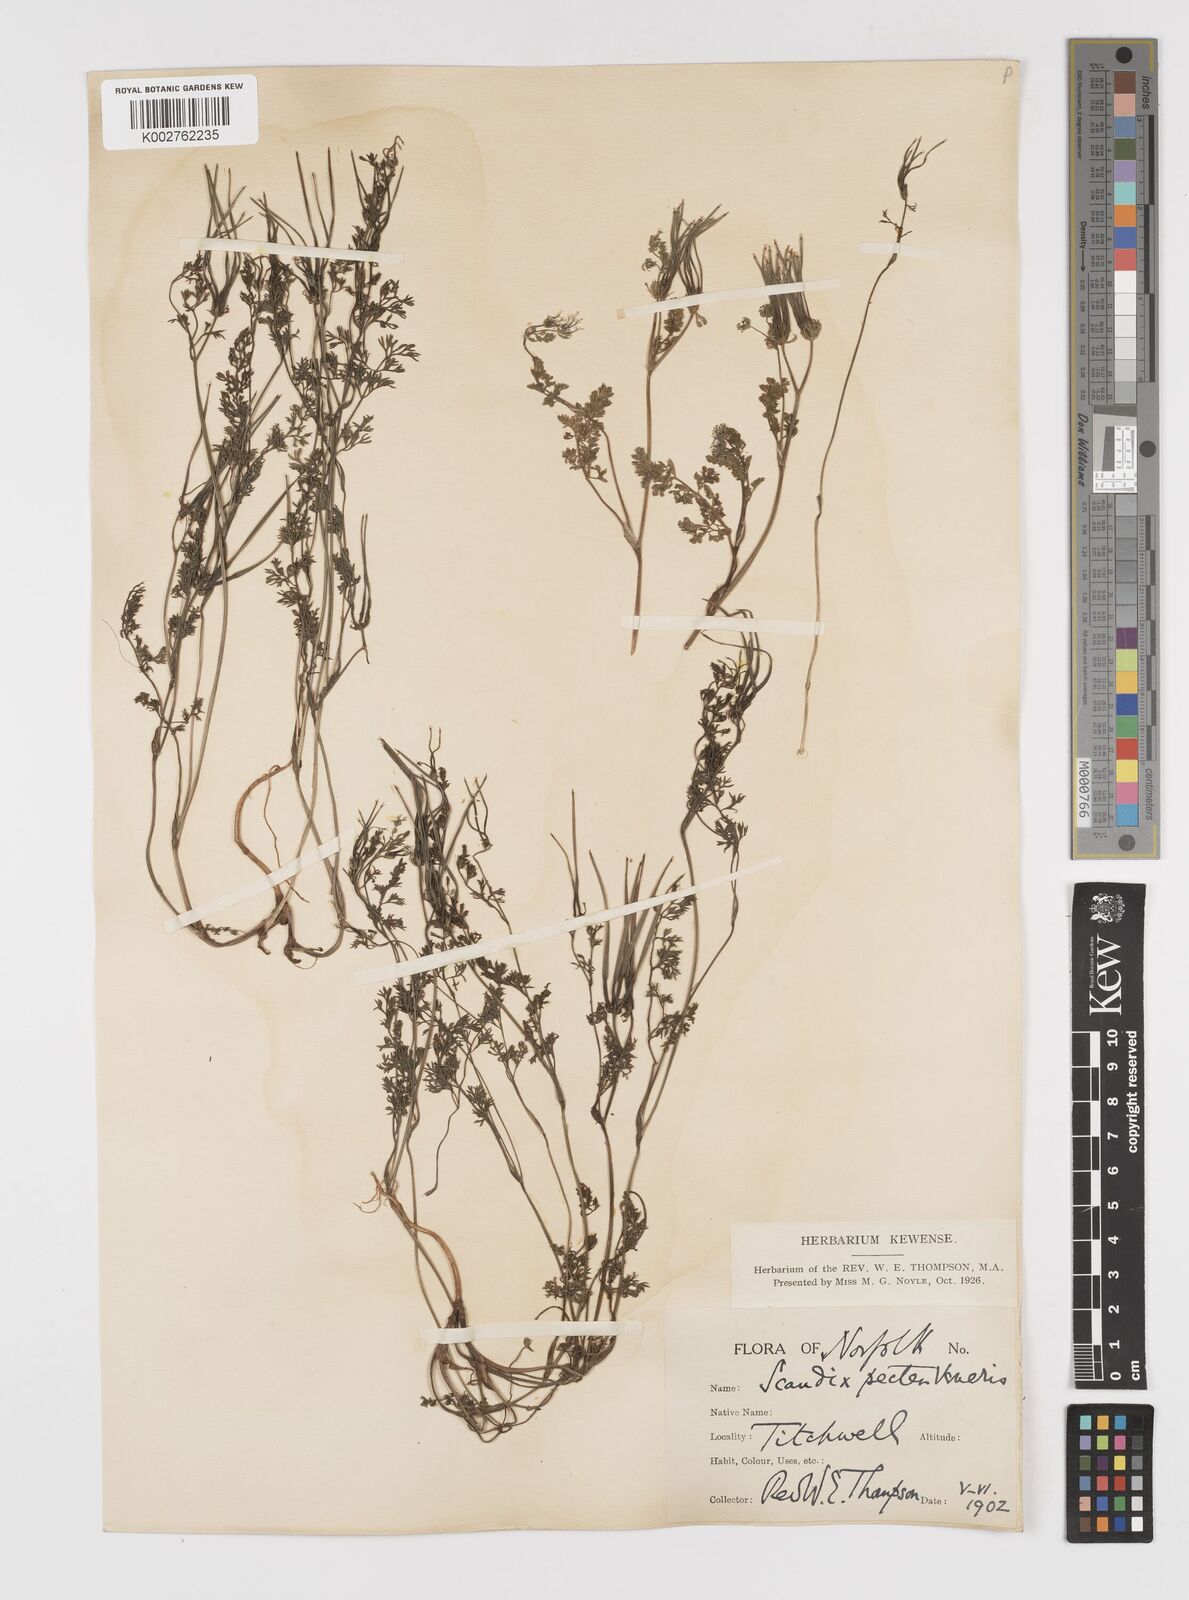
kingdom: Plantae
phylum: Tracheophyta
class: Magnoliopsida
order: Apiales
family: Apiaceae
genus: Scandix
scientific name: Scandix pecten-veneris
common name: Shepherd's-needle
